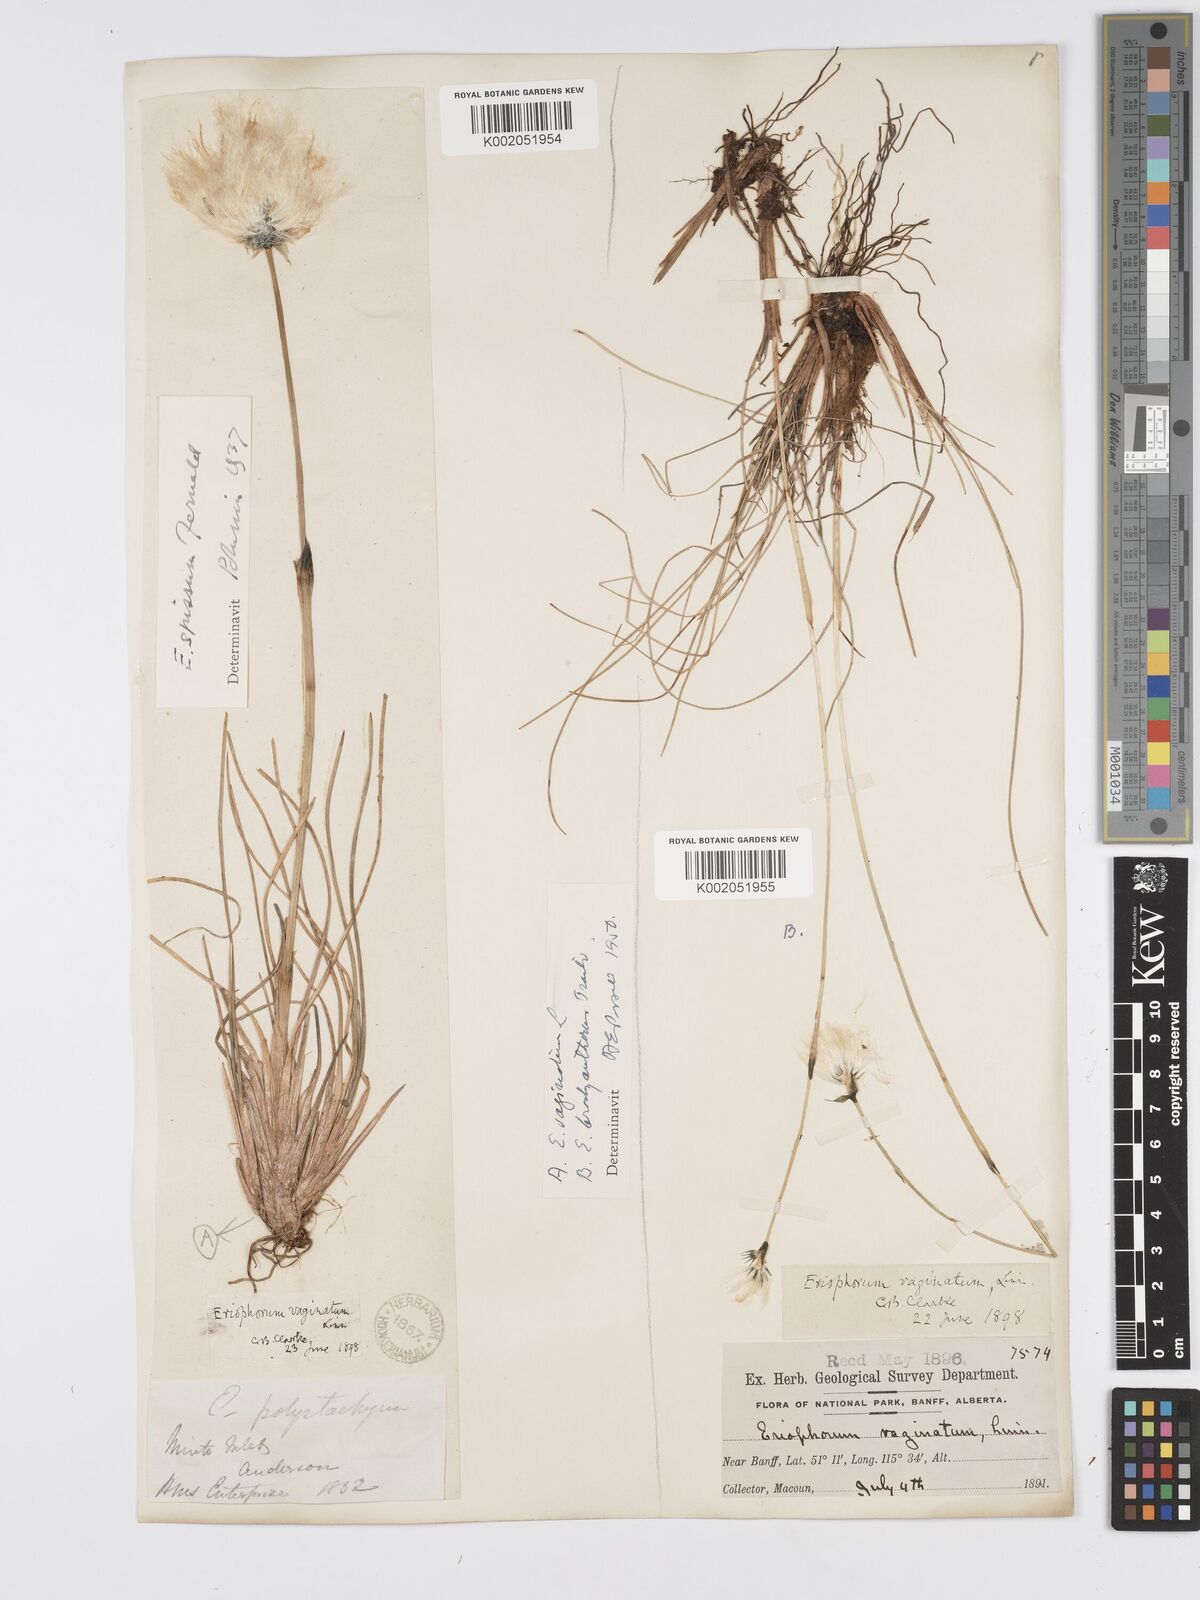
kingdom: Plantae
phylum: Tracheophyta
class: Liliopsida
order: Poales
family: Cyperaceae
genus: Eriophorum
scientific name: Eriophorum brachyantherum
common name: Closed-sheathed cottongrass
